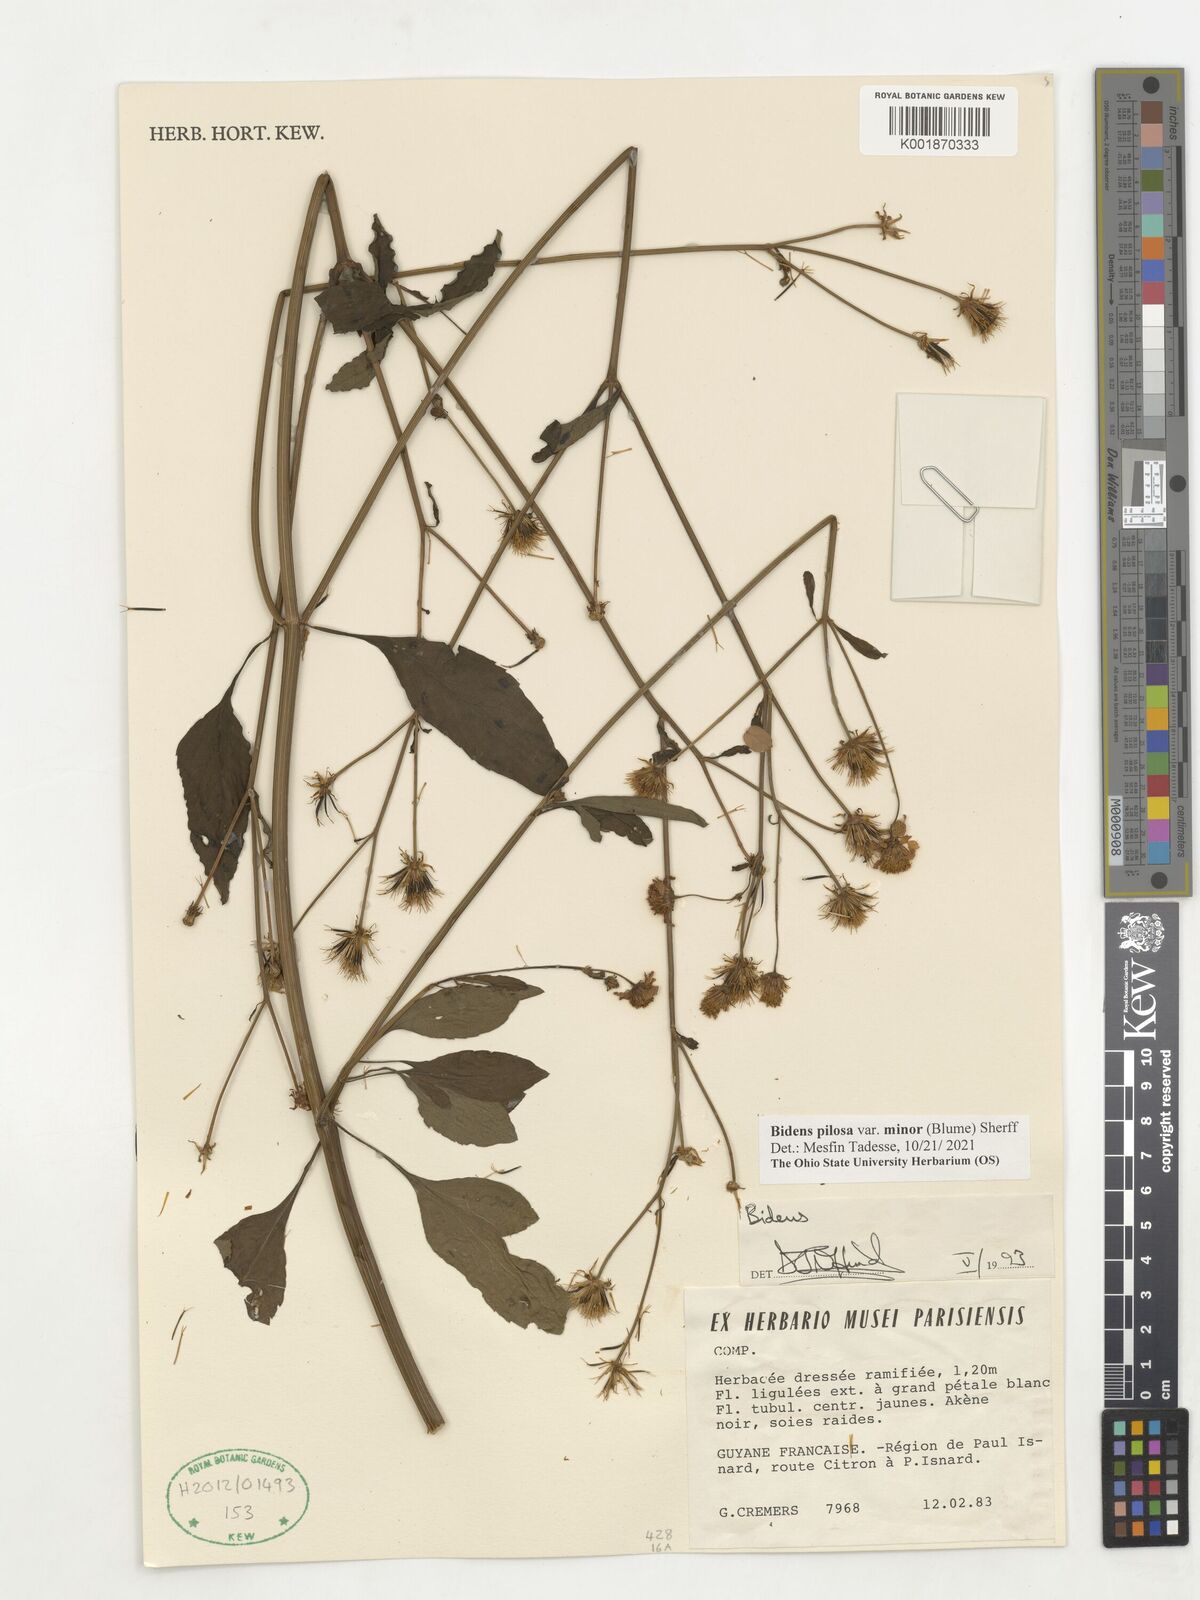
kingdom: Plantae
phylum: Tracheophyta
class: Magnoliopsida
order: Asterales
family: Asteraceae
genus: Bidens
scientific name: Bidens pilosa
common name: Black-jack
